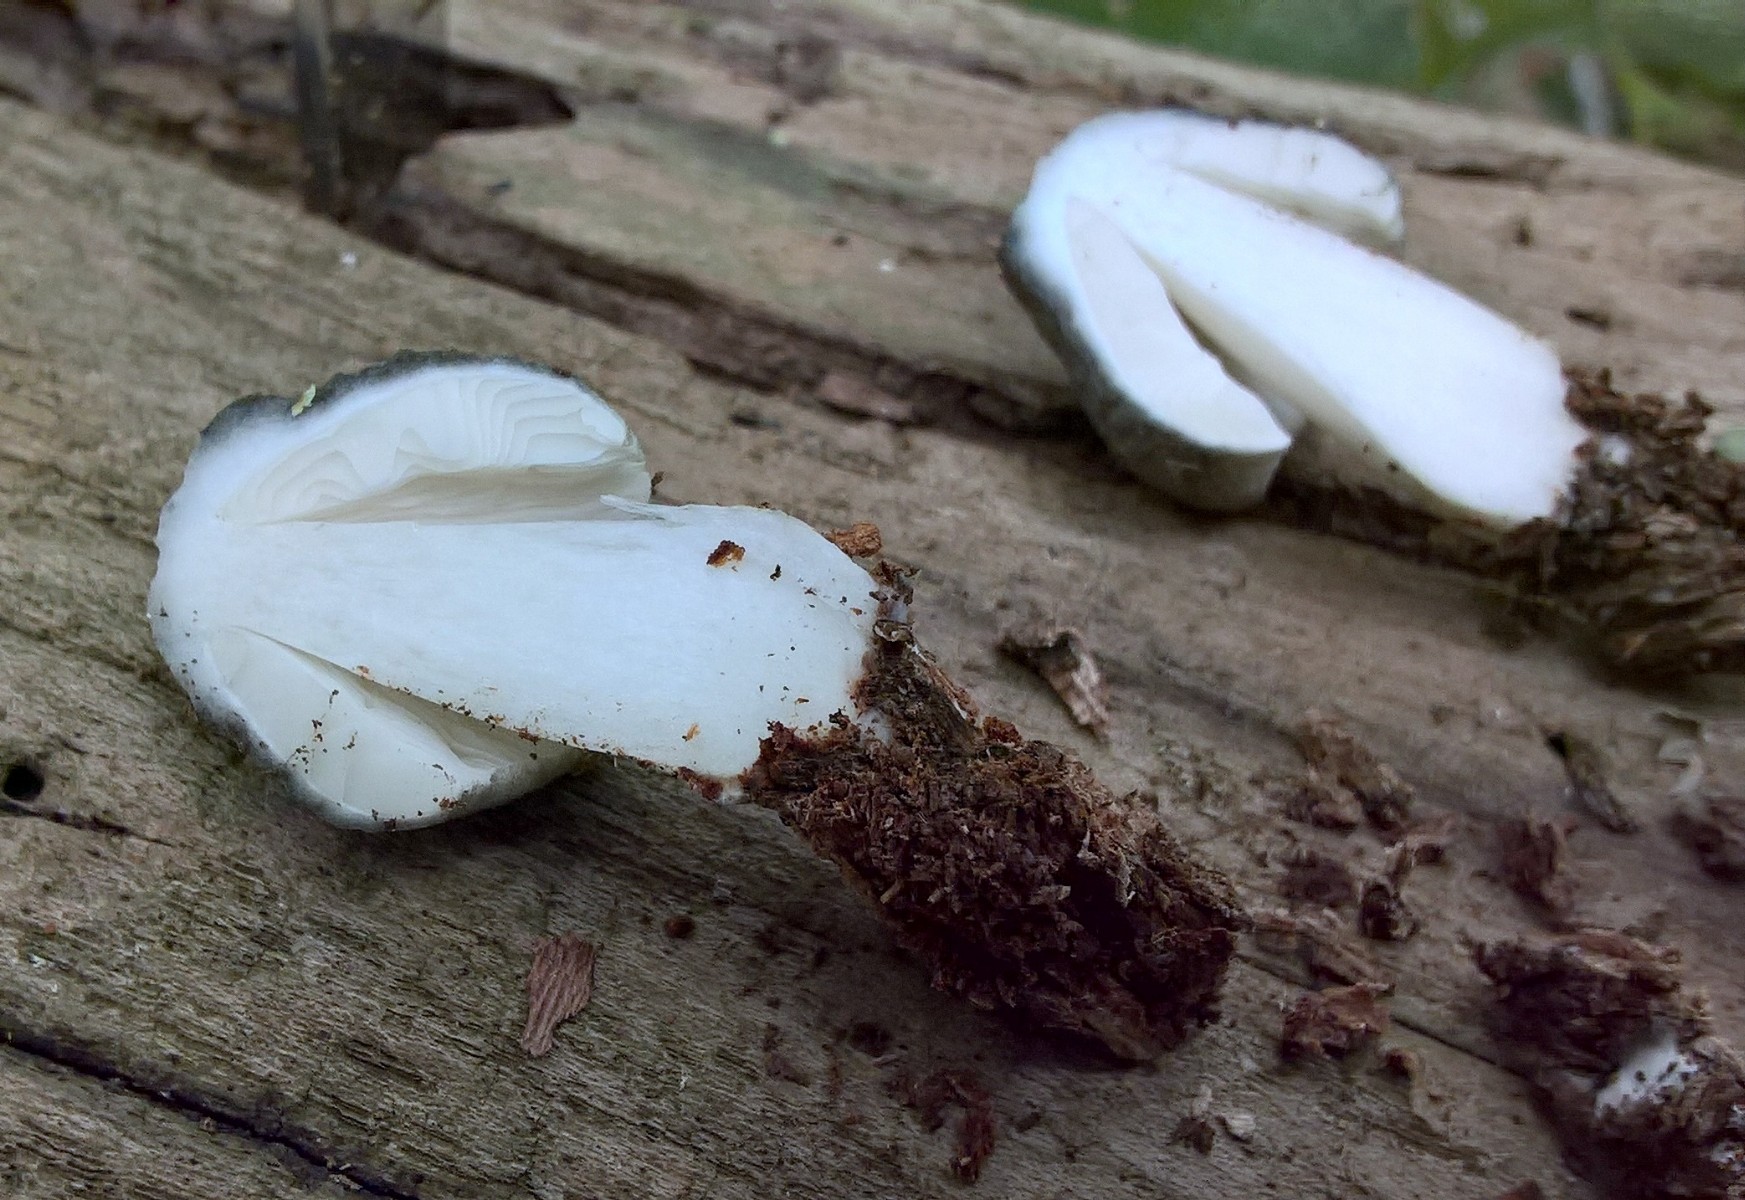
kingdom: Fungi
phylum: Basidiomycota
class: Agaricomycetes
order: Agaricales
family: Pluteaceae
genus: Pluteus
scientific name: Pluteus salicinus
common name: stiv skærmhat
